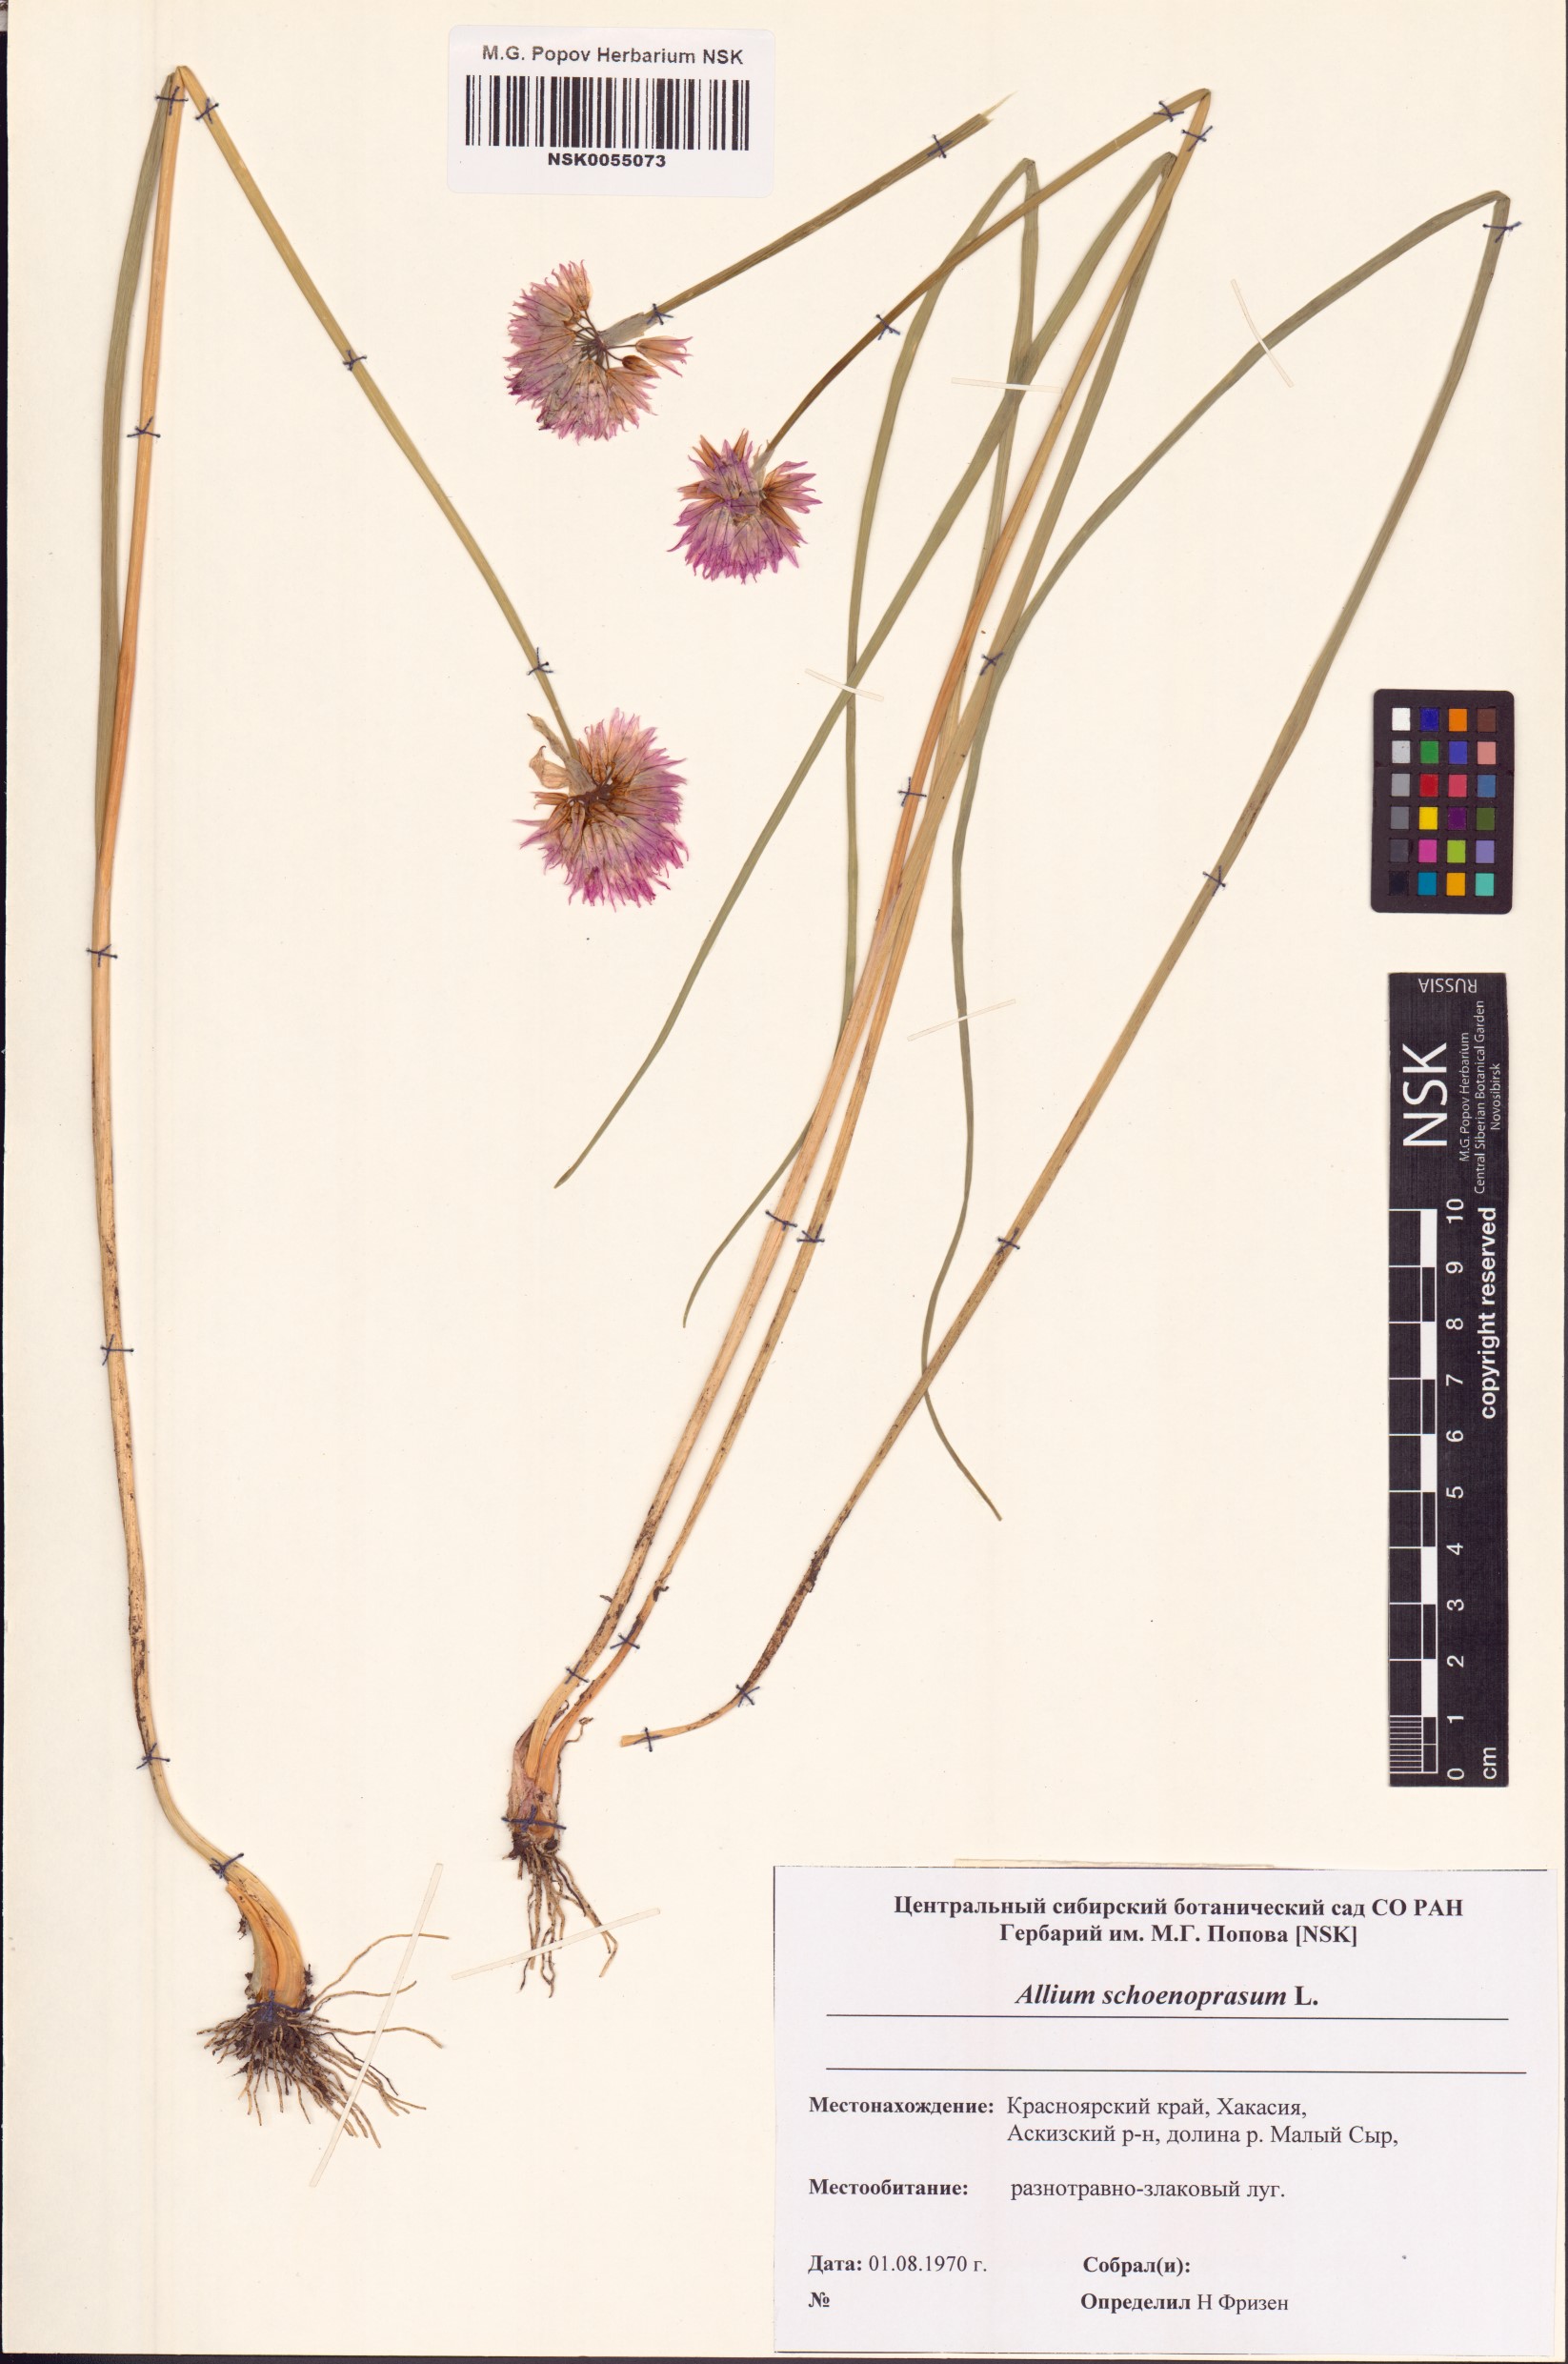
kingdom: Plantae
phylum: Tracheophyta
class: Liliopsida
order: Asparagales
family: Amaryllidaceae
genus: Allium
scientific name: Allium schoenoprasum
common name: Chives
